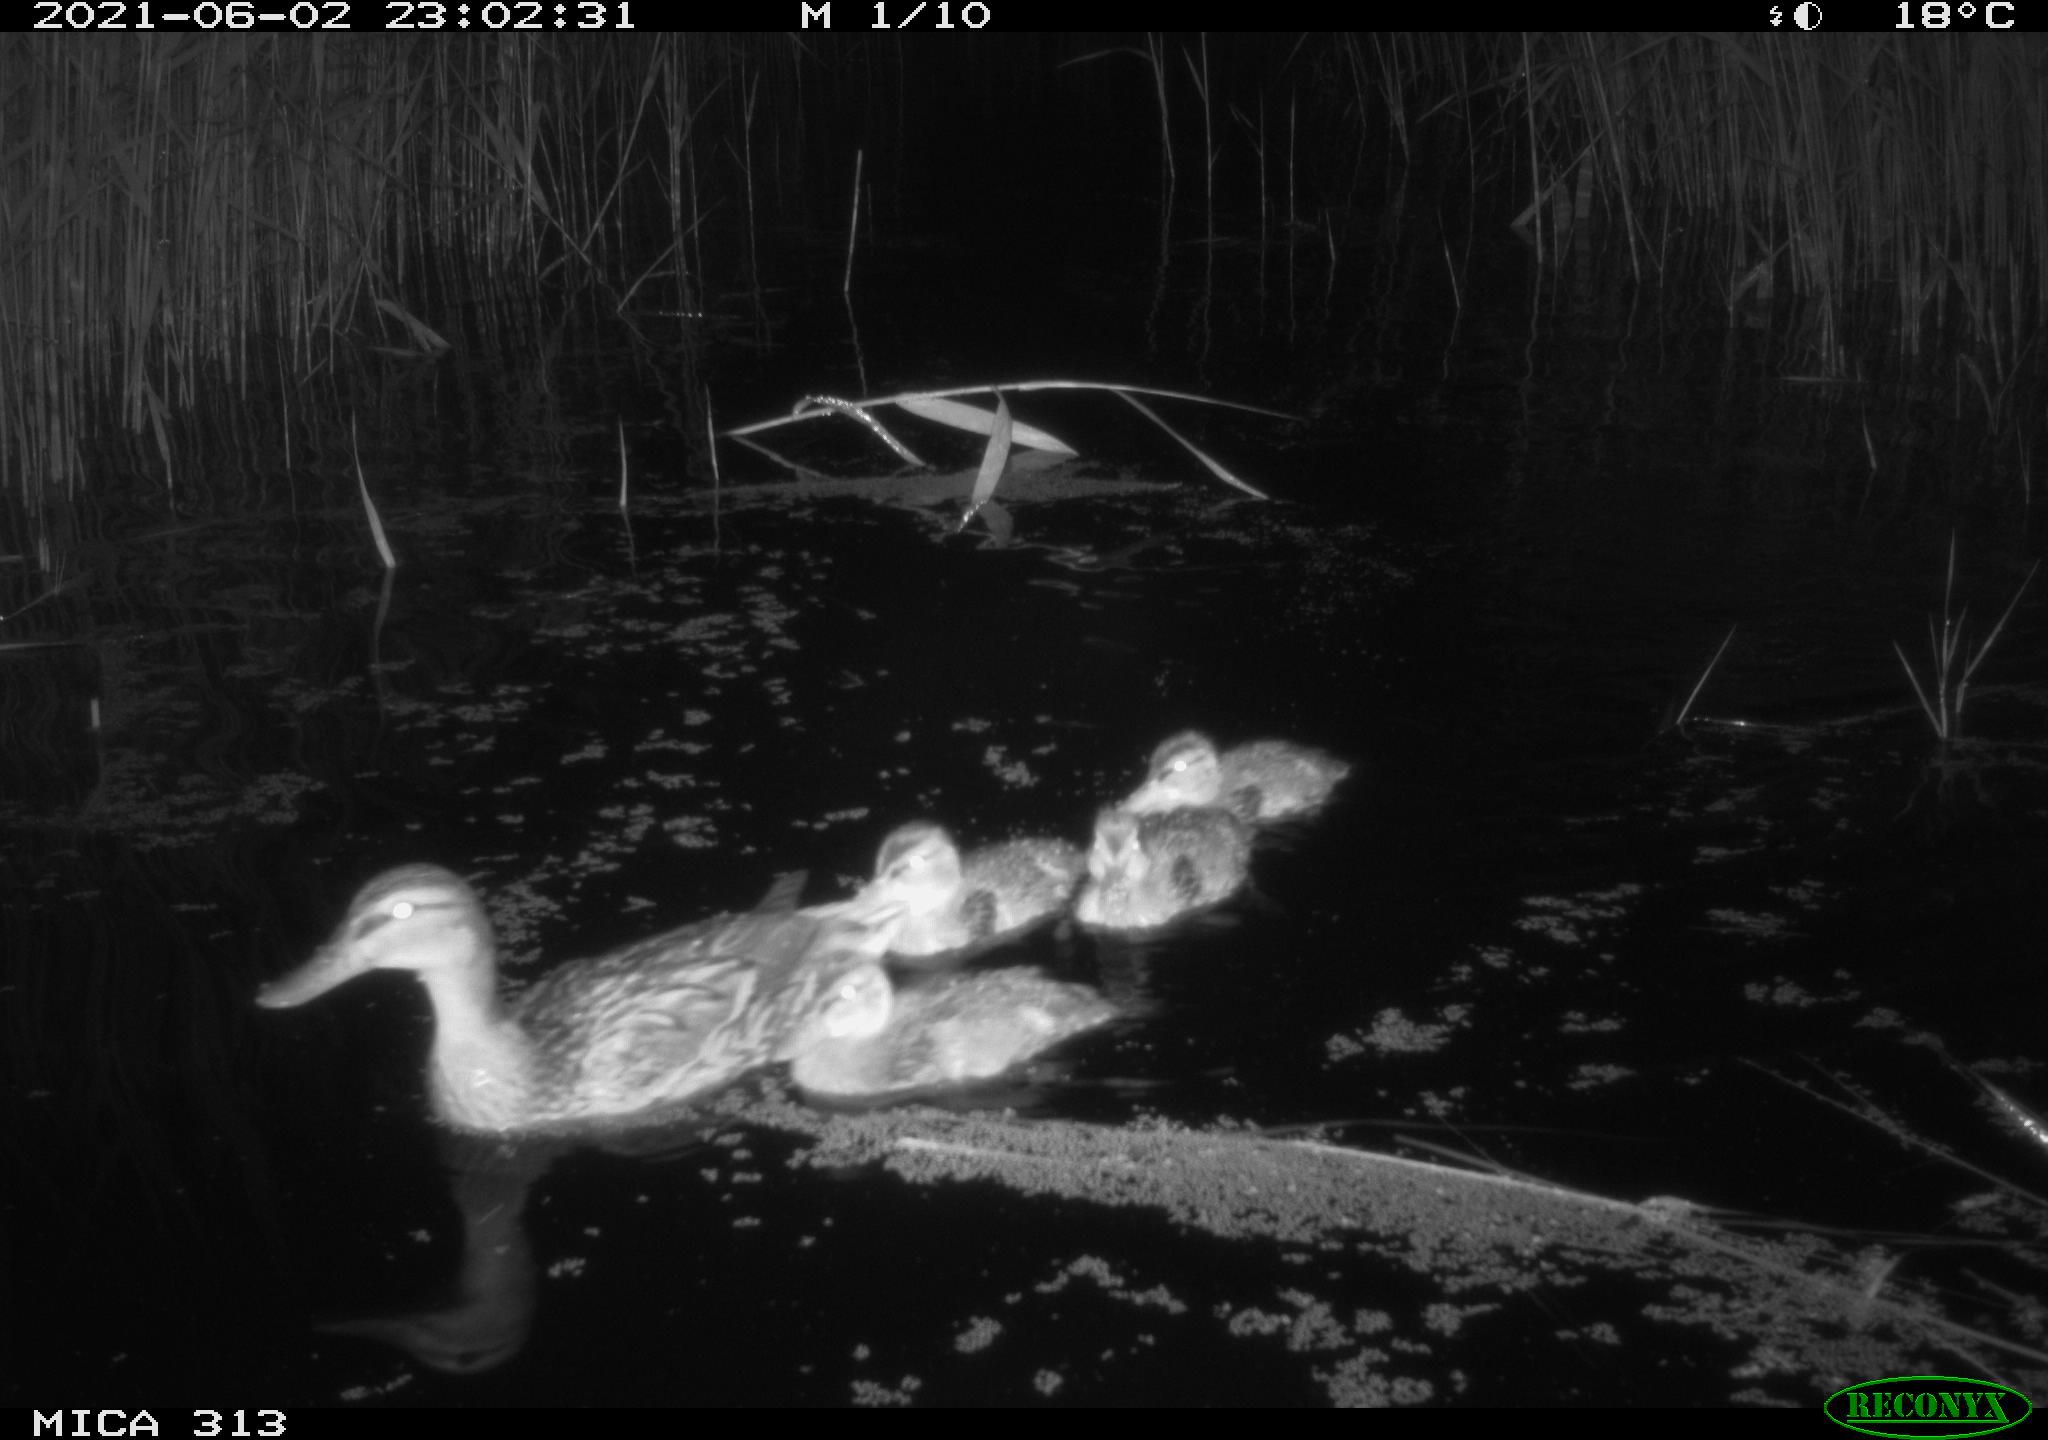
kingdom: Animalia
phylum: Chordata
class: Aves
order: Anseriformes
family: Anatidae
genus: Anas
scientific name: Anas
